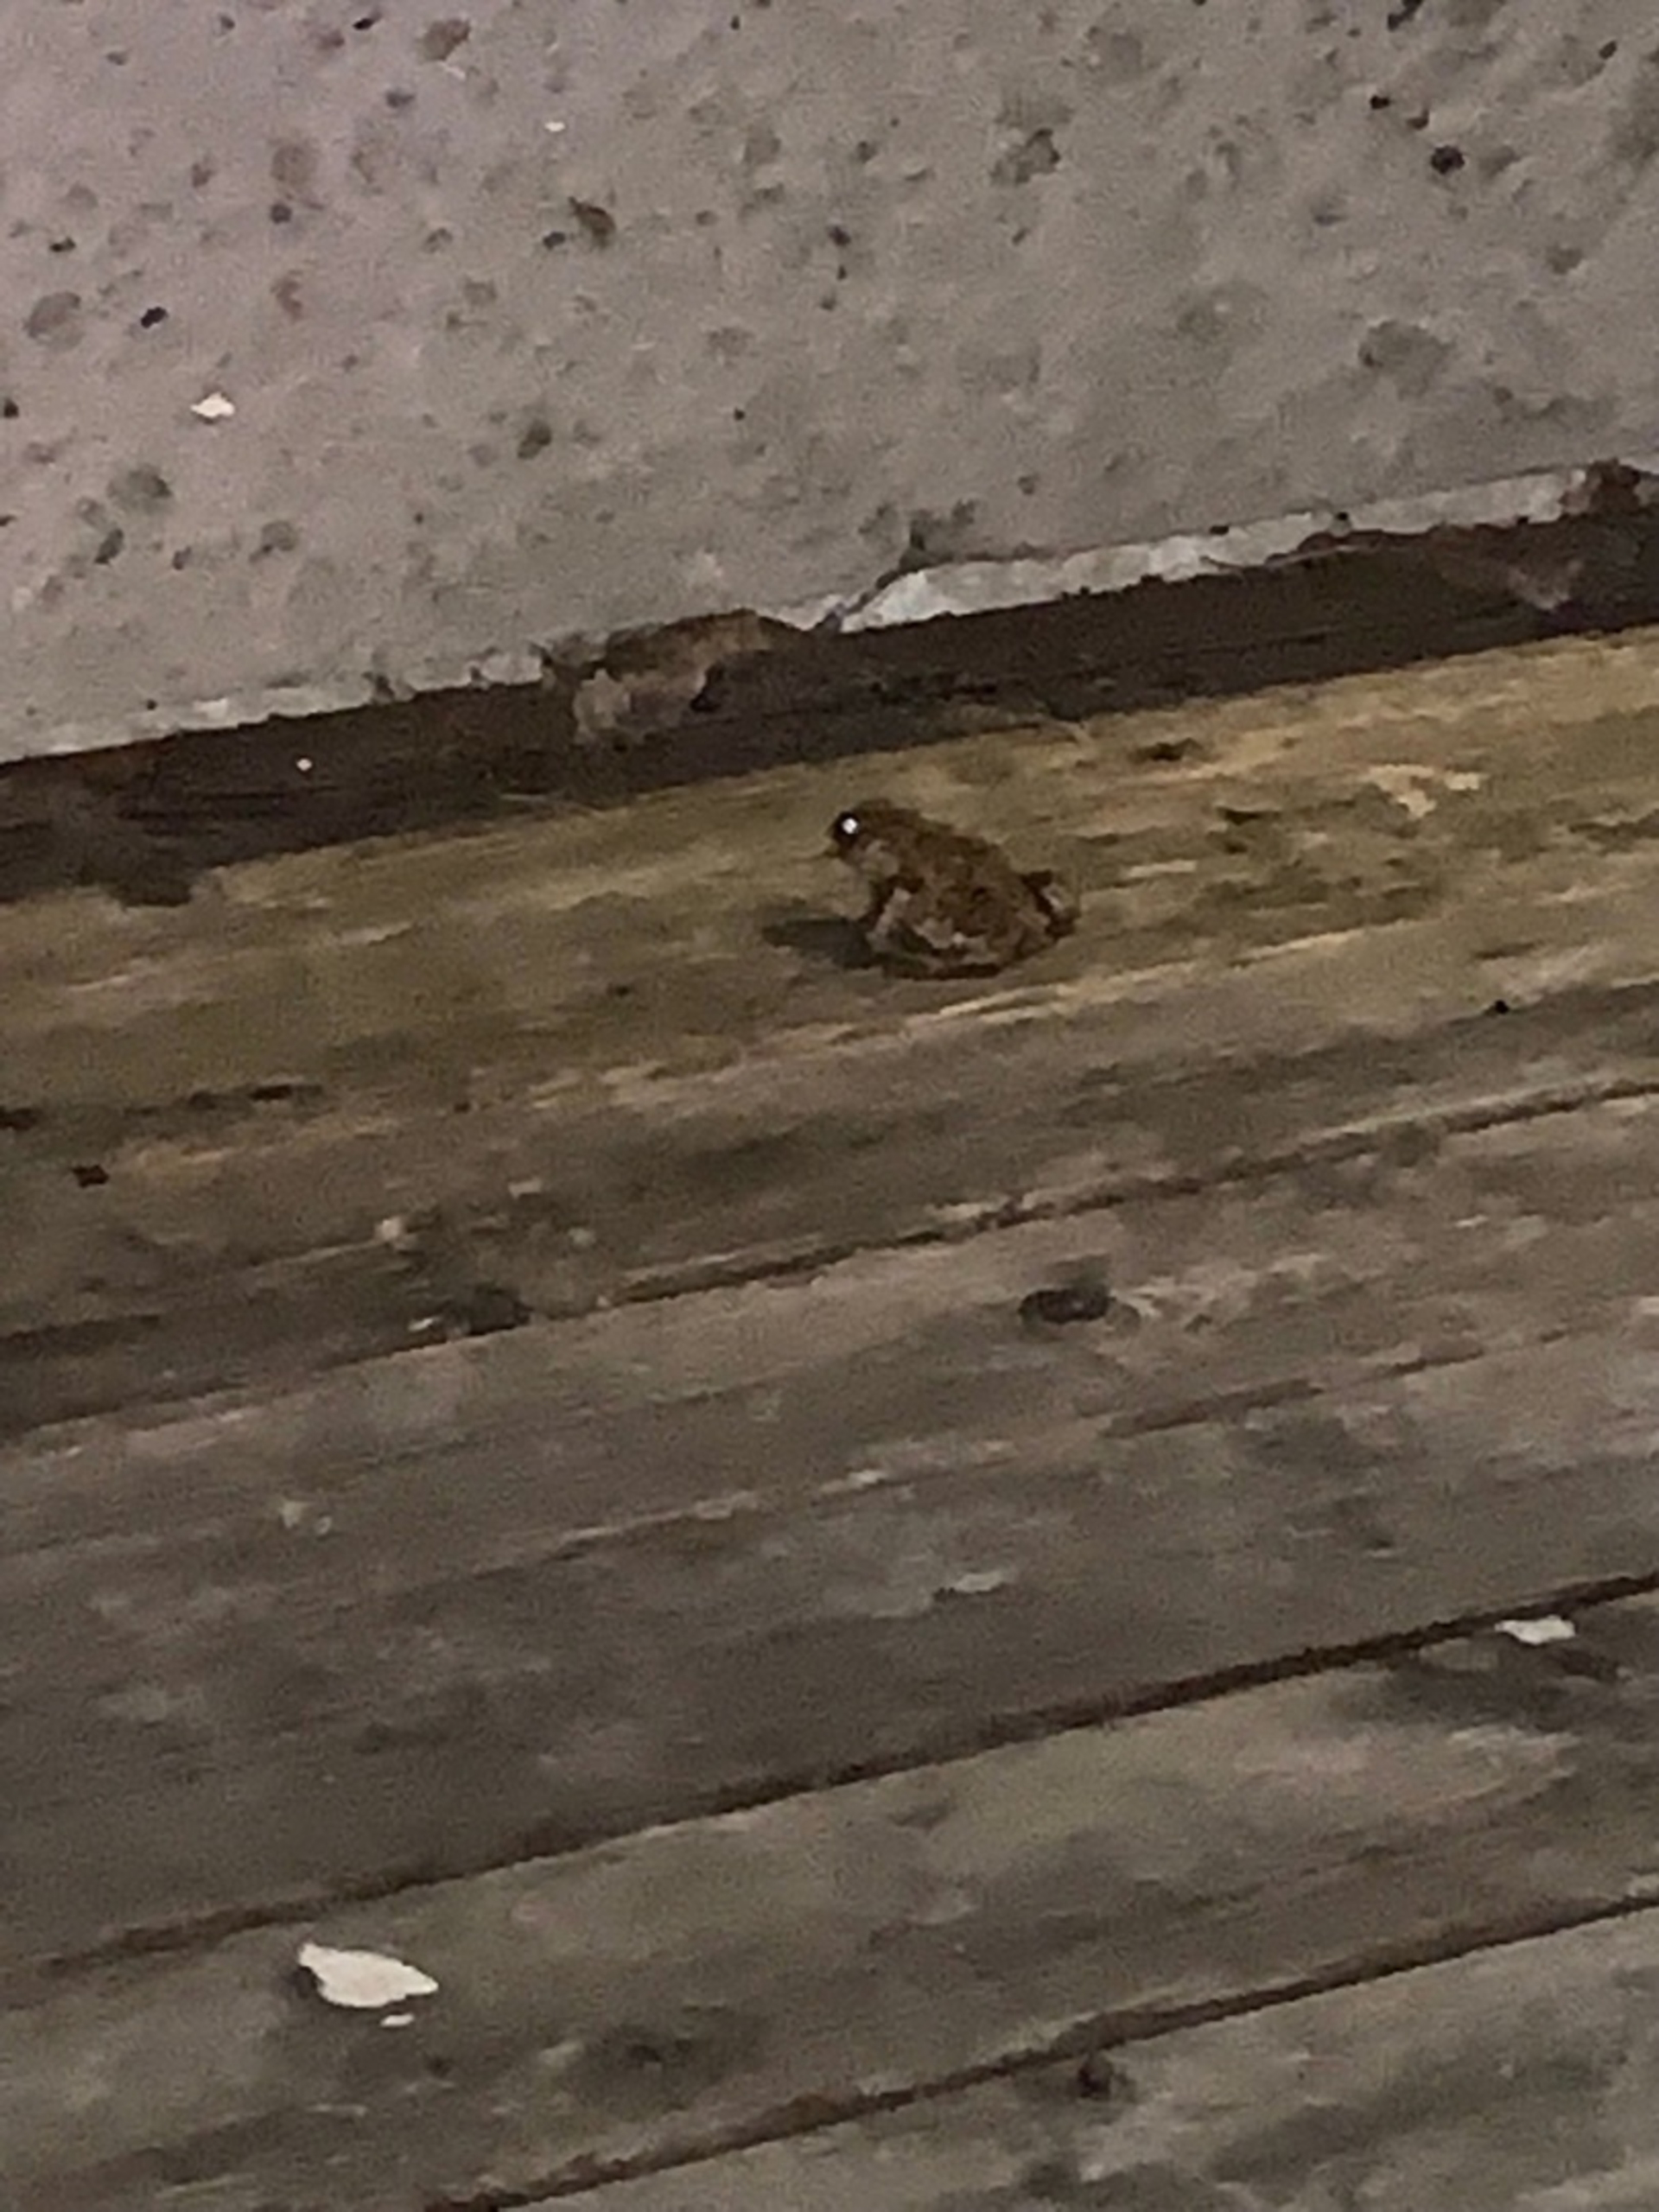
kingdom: Animalia
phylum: Chordata
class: Amphibia
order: Anura
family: Bufonidae
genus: Bufo
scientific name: Bufo bufo
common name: Skrubtudse
